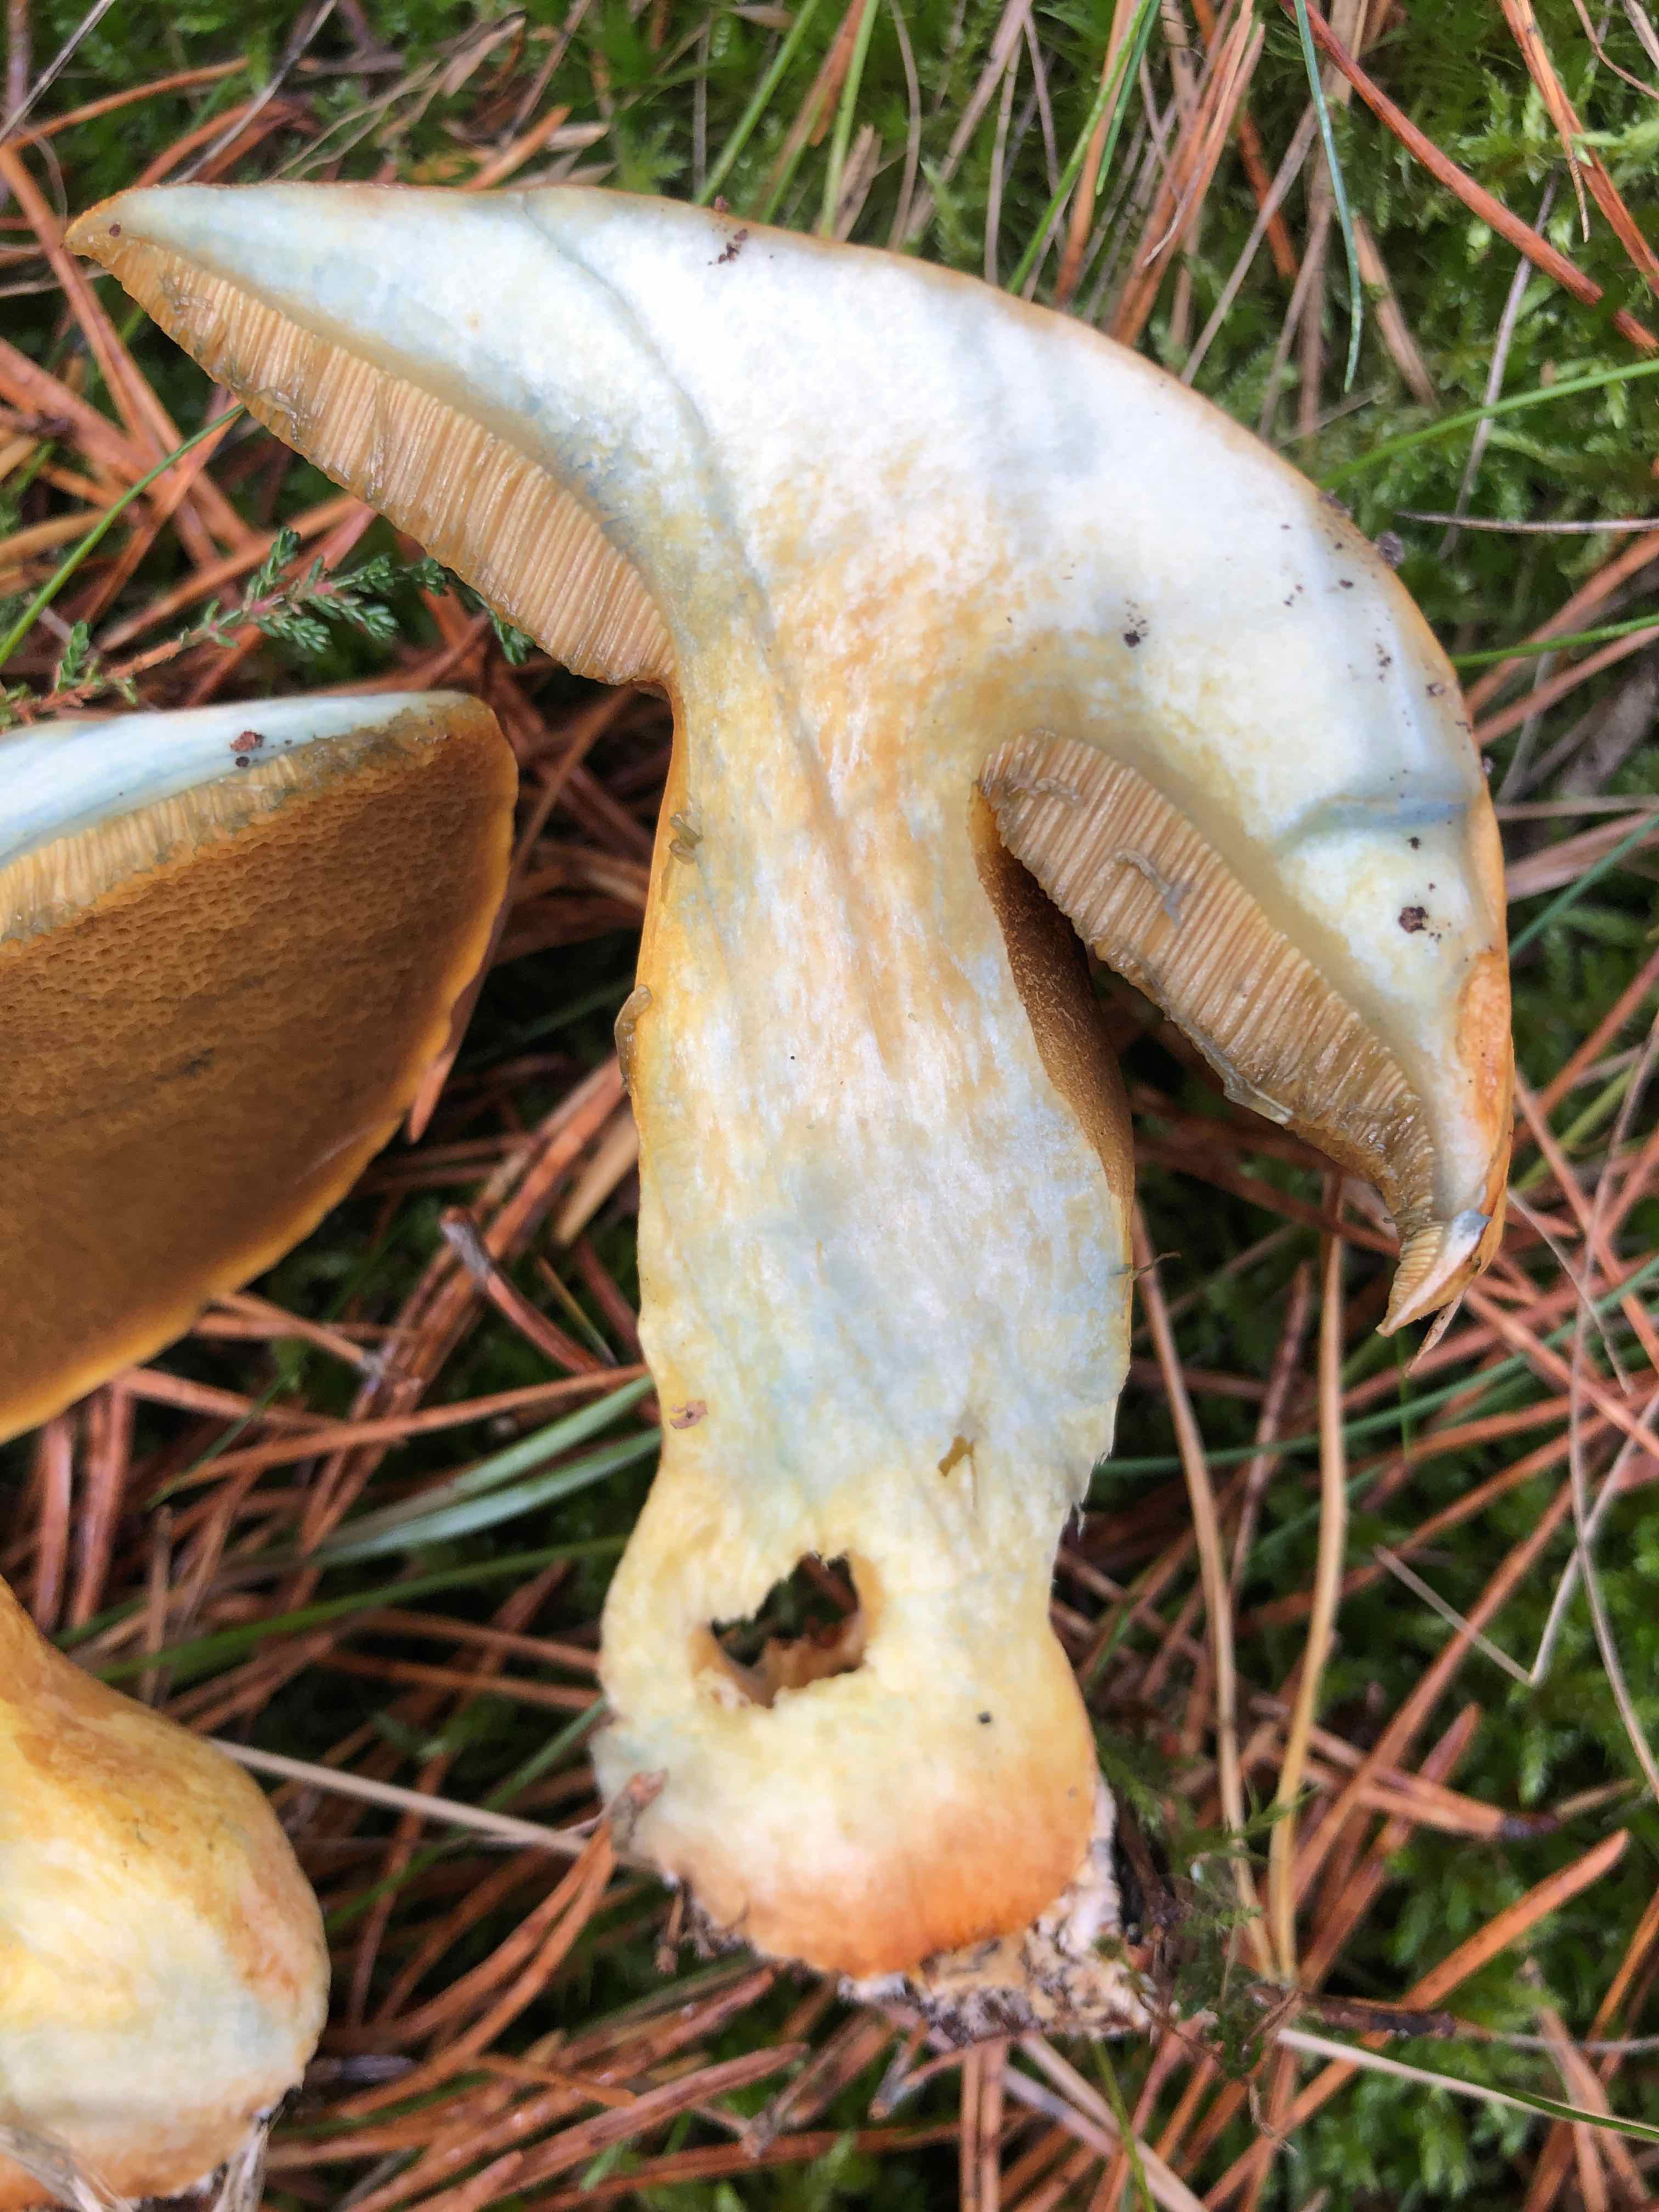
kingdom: Fungi
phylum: Basidiomycota
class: Agaricomycetes
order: Boletales
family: Suillaceae
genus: Suillus
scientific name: Suillus variegatus
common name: broget slimrørhat
